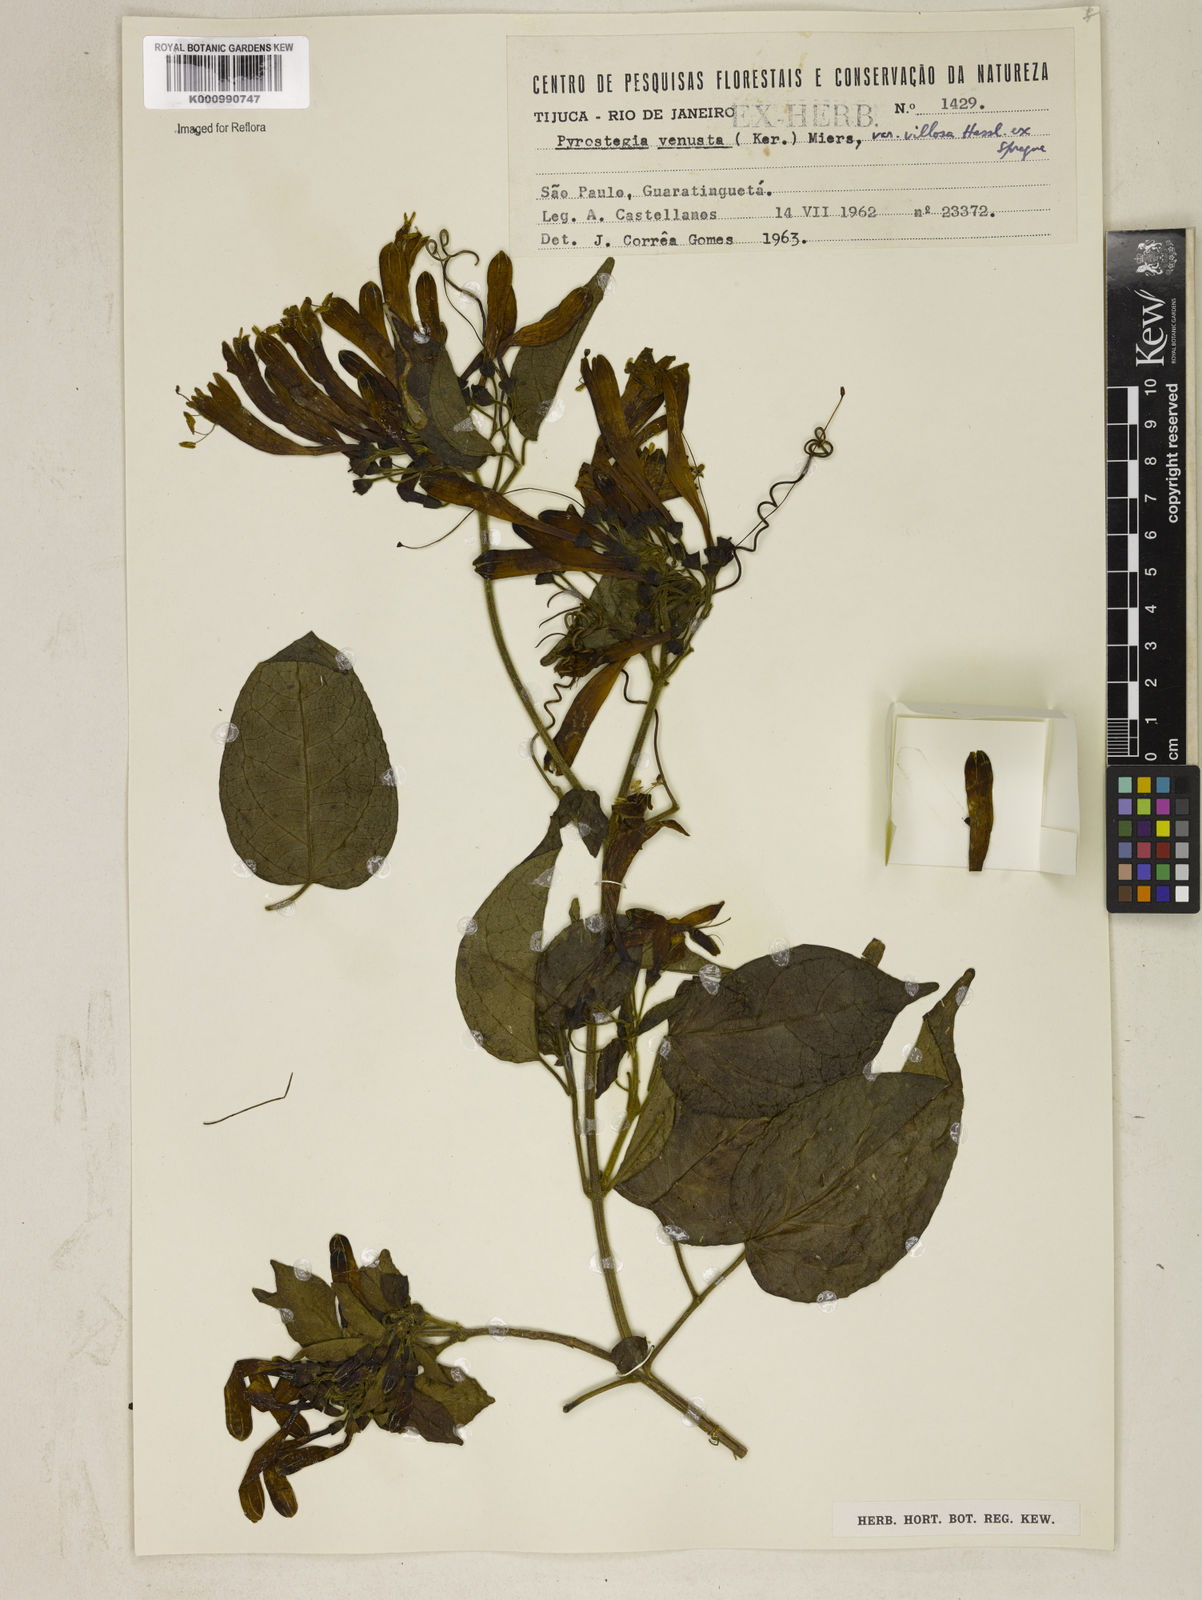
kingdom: Plantae
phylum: Tracheophyta
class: Magnoliopsida
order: Lamiales
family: Bignoniaceae
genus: Pyrostegia
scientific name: Pyrostegia venusta
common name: Flamevine
